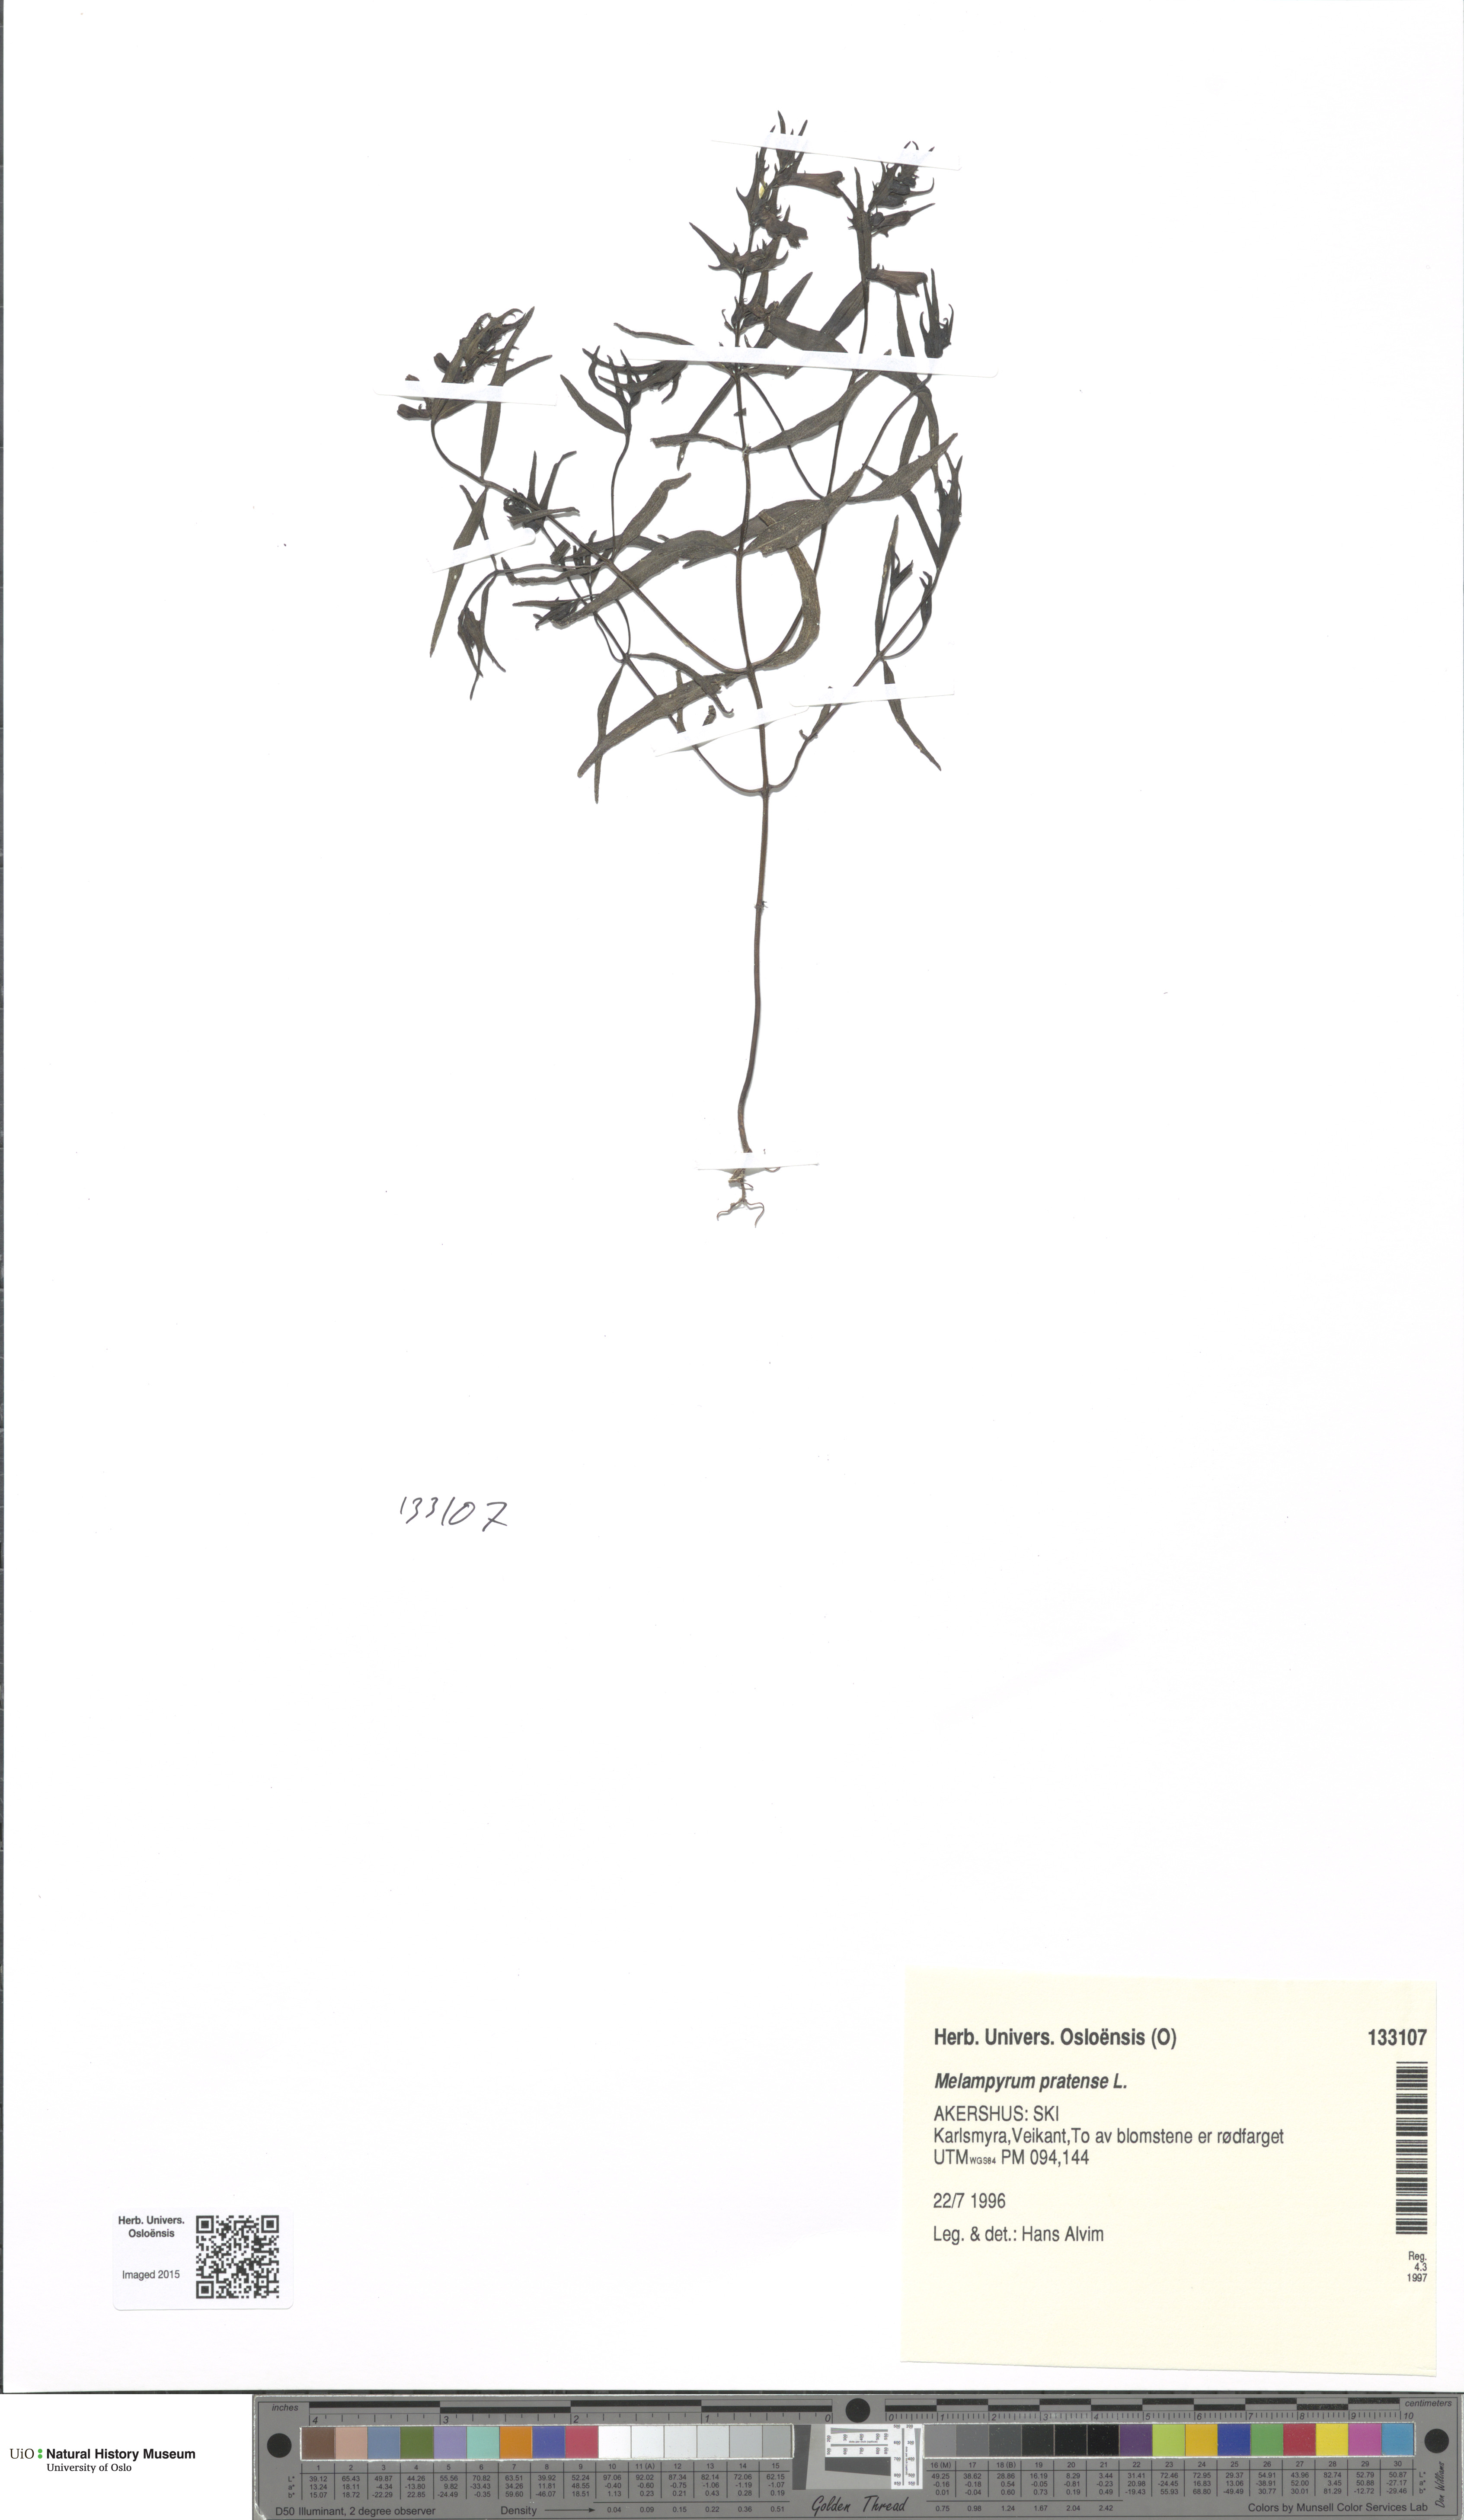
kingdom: Plantae
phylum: Tracheophyta
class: Magnoliopsida
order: Lamiales
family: Orobanchaceae
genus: Melampyrum
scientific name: Melampyrum pratense
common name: Common cow-wheat
